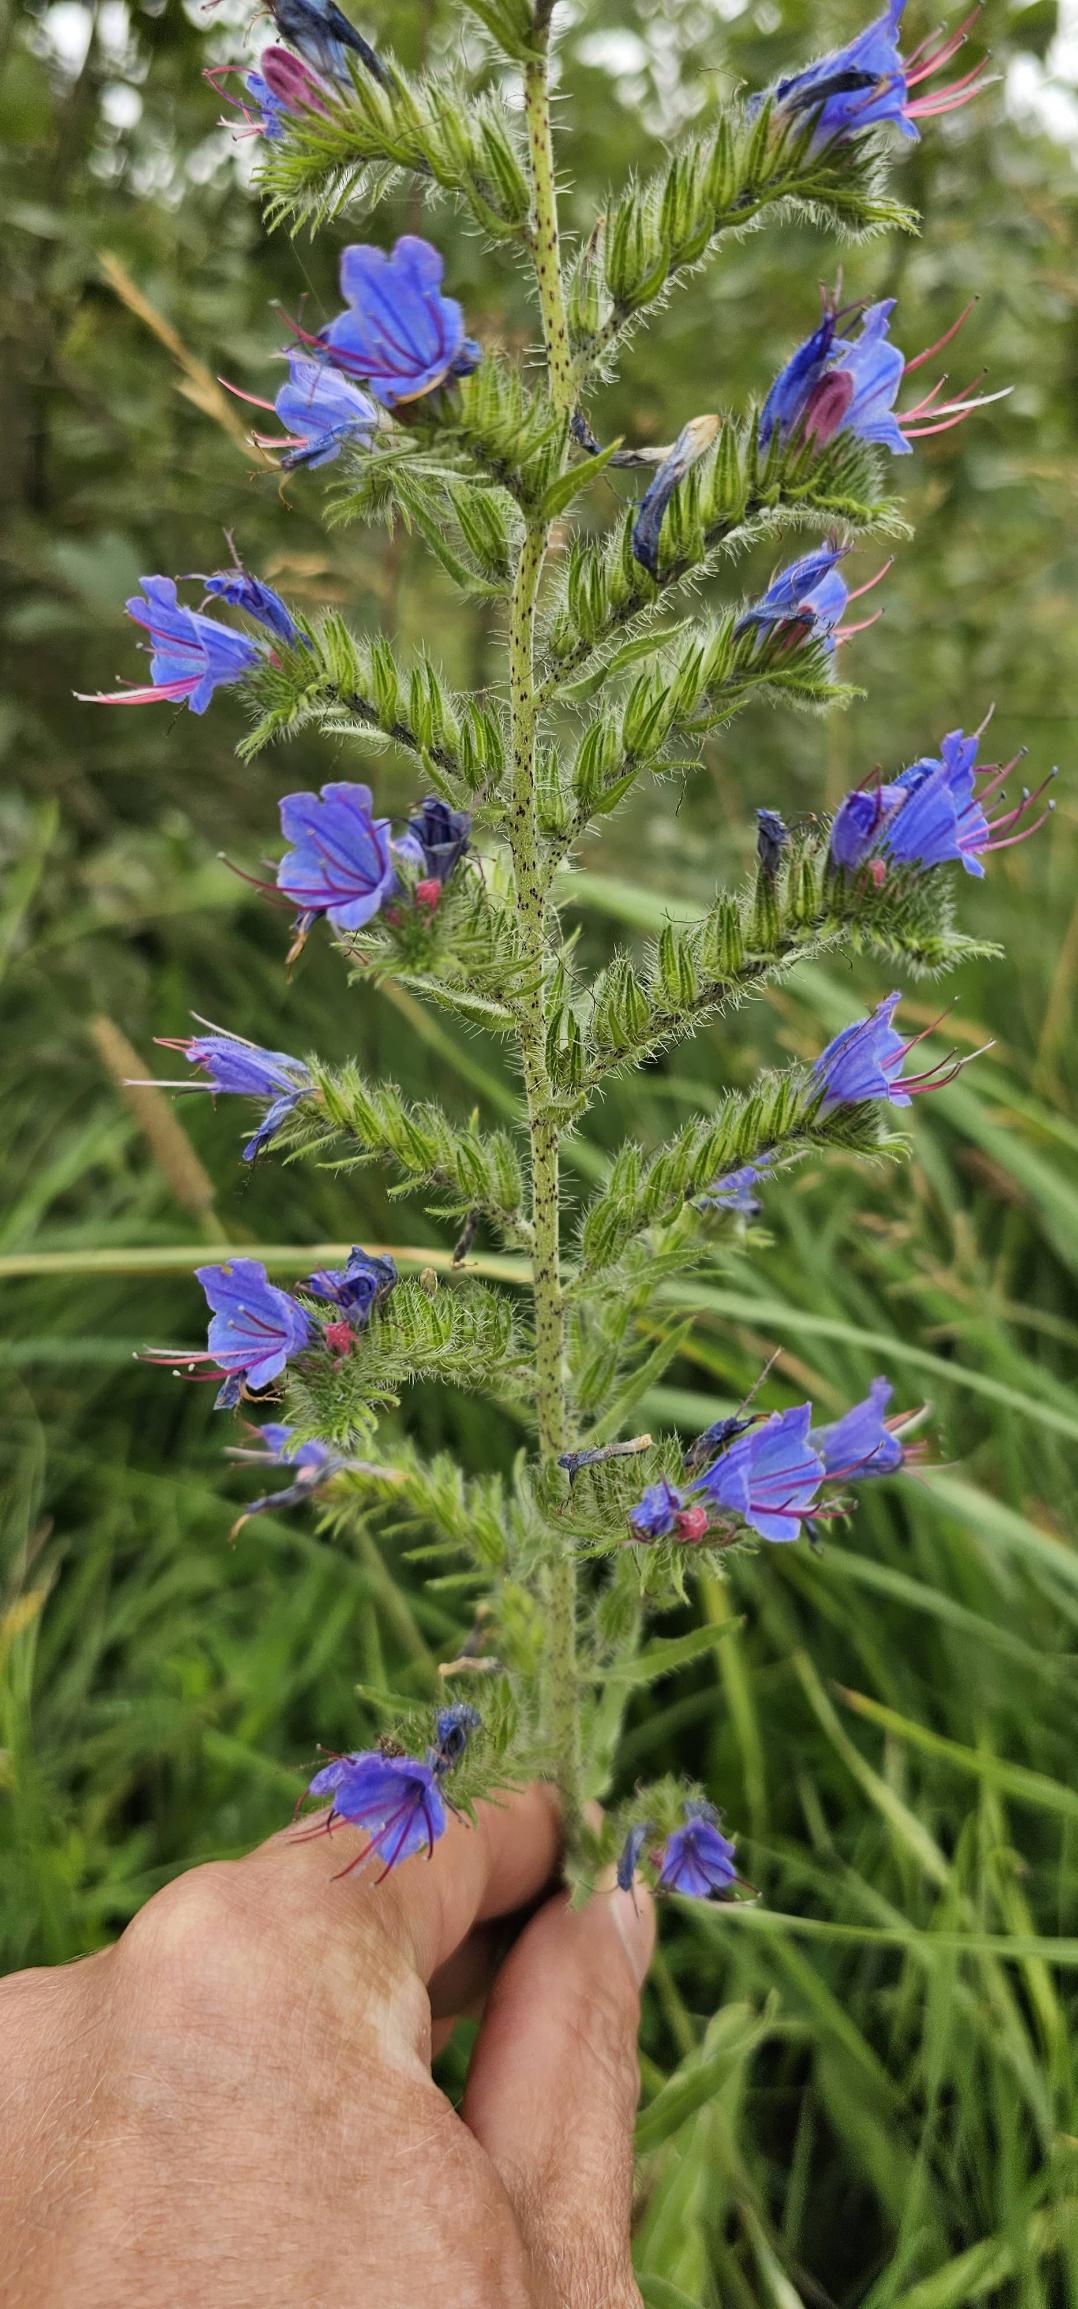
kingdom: Plantae
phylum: Tracheophyta
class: Magnoliopsida
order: Boraginales
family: Boraginaceae
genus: Echium
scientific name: Echium vulgare
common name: Slangehoved
